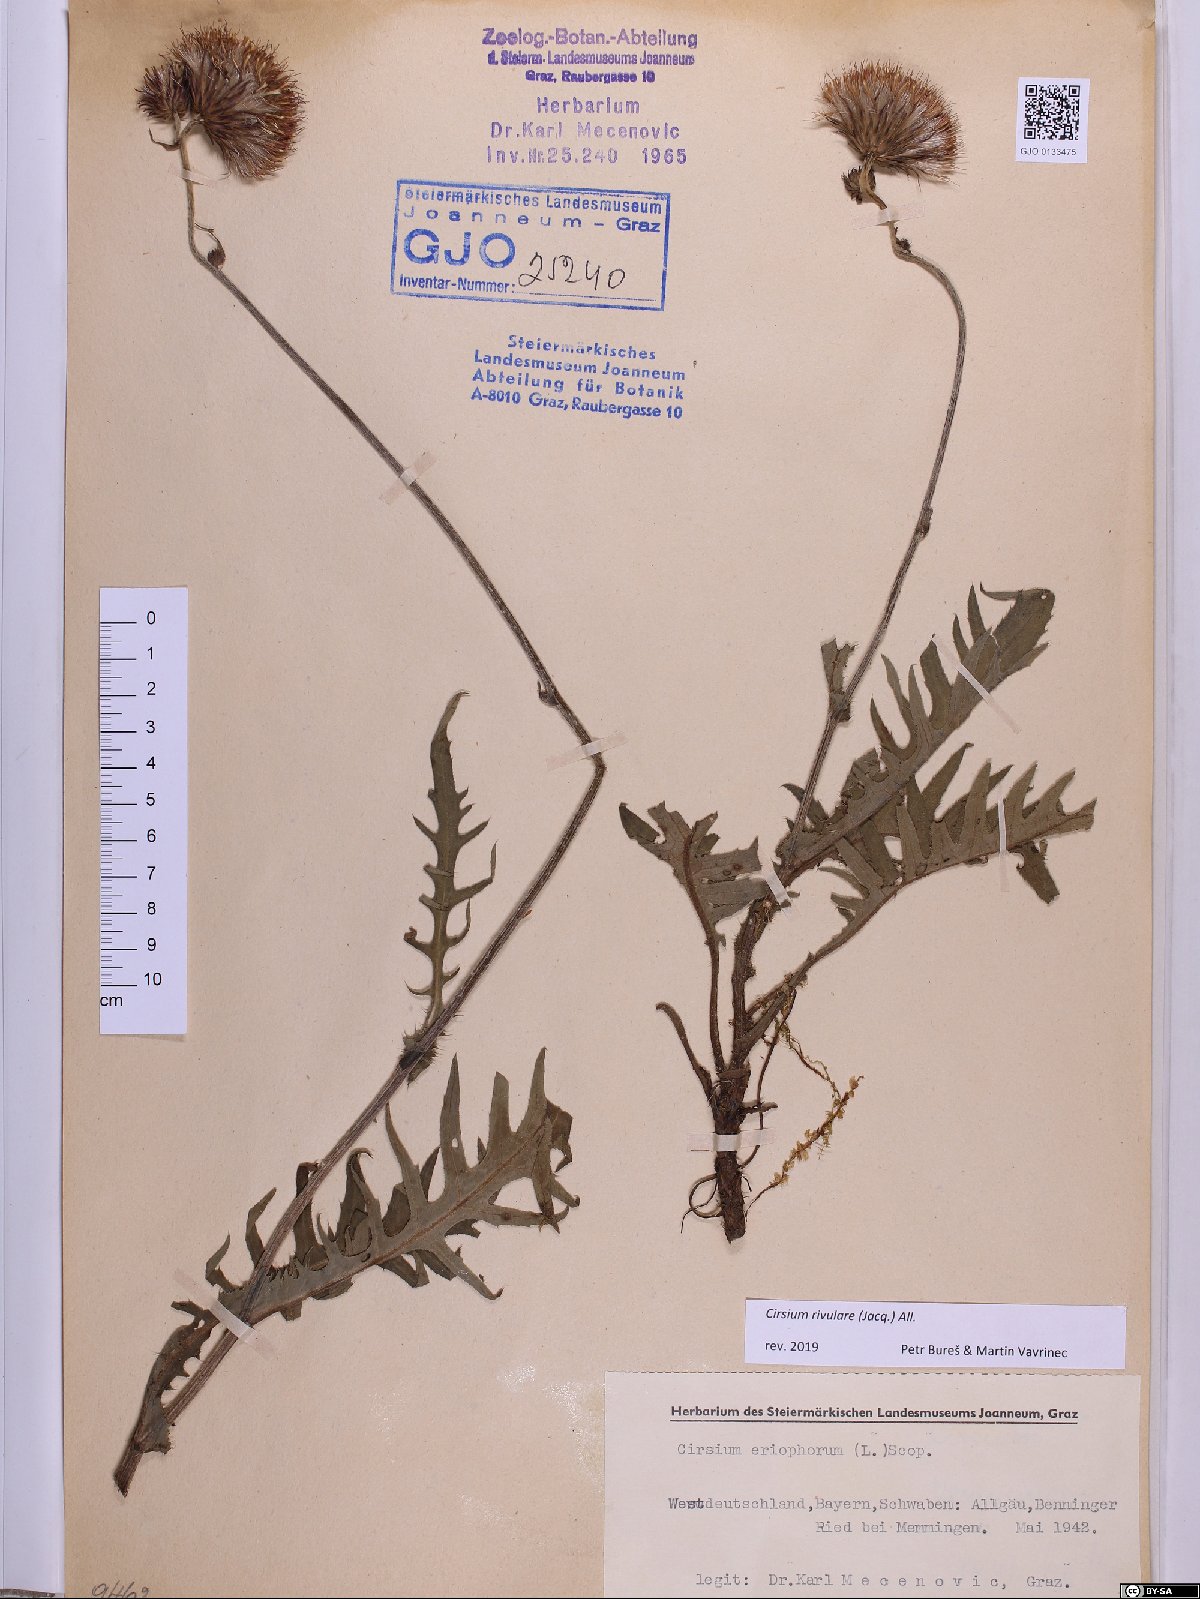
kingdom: Plantae
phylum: Tracheophyta
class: Magnoliopsida
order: Asterales
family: Asteraceae
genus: Cirsium
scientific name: Cirsium rivulare
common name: Brook thistle
